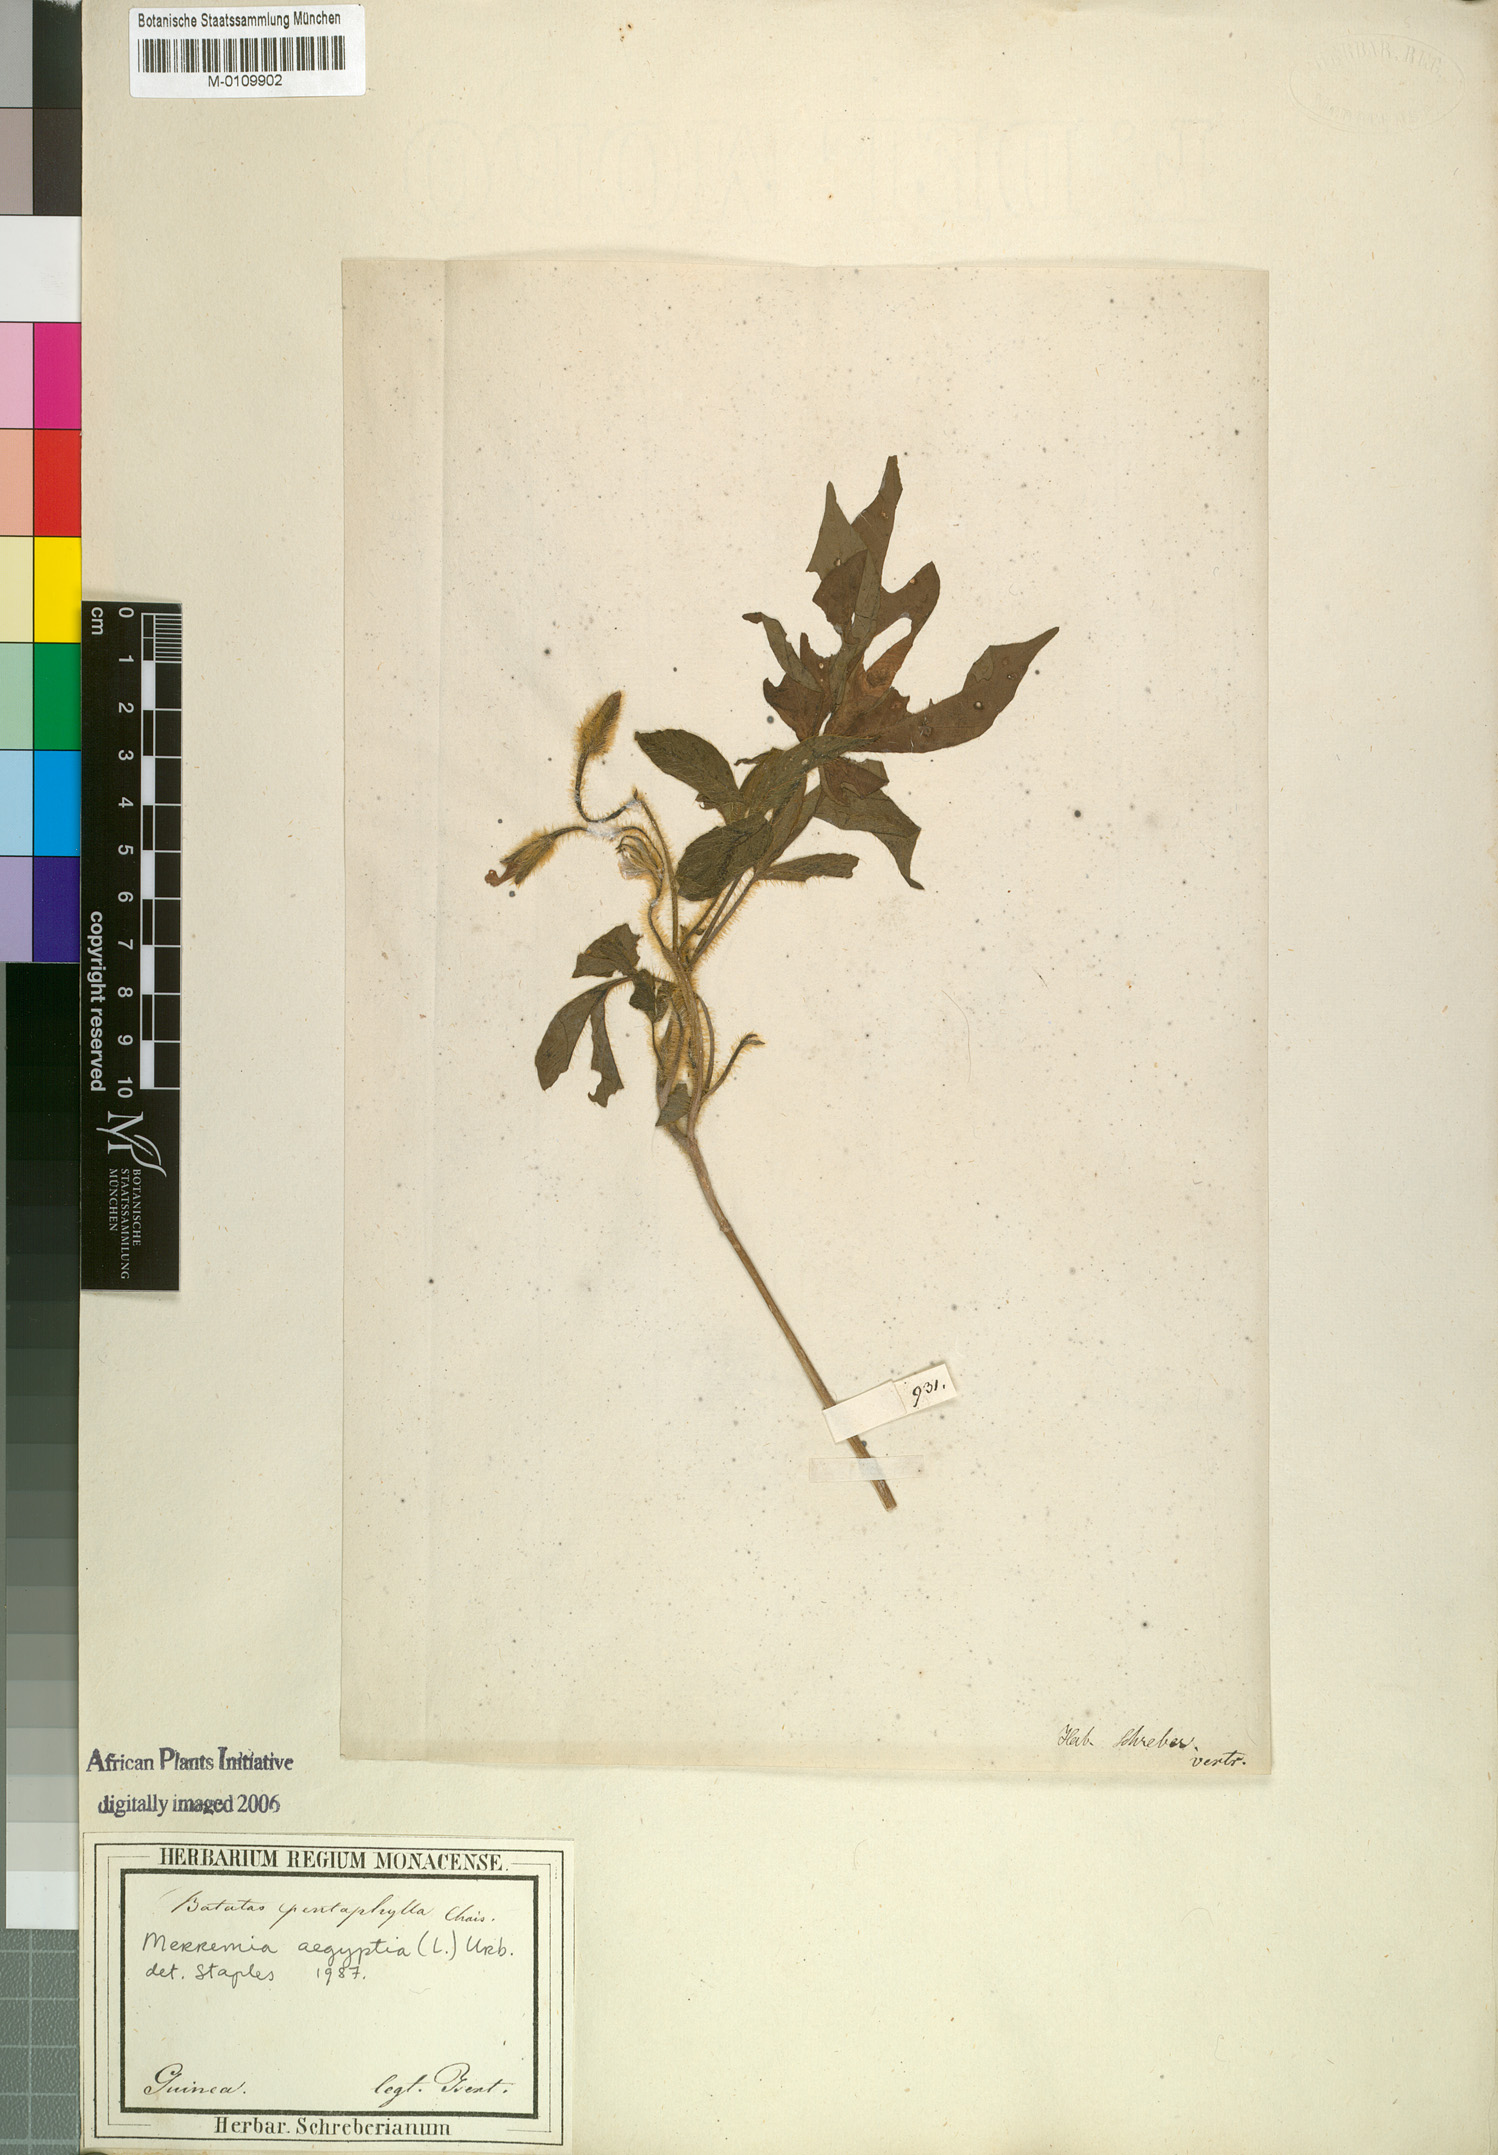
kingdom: Plantae
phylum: Tracheophyta
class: Magnoliopsida
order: Solanales
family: Convolvulaceae
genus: Distimake
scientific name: Distimake aegyptius
